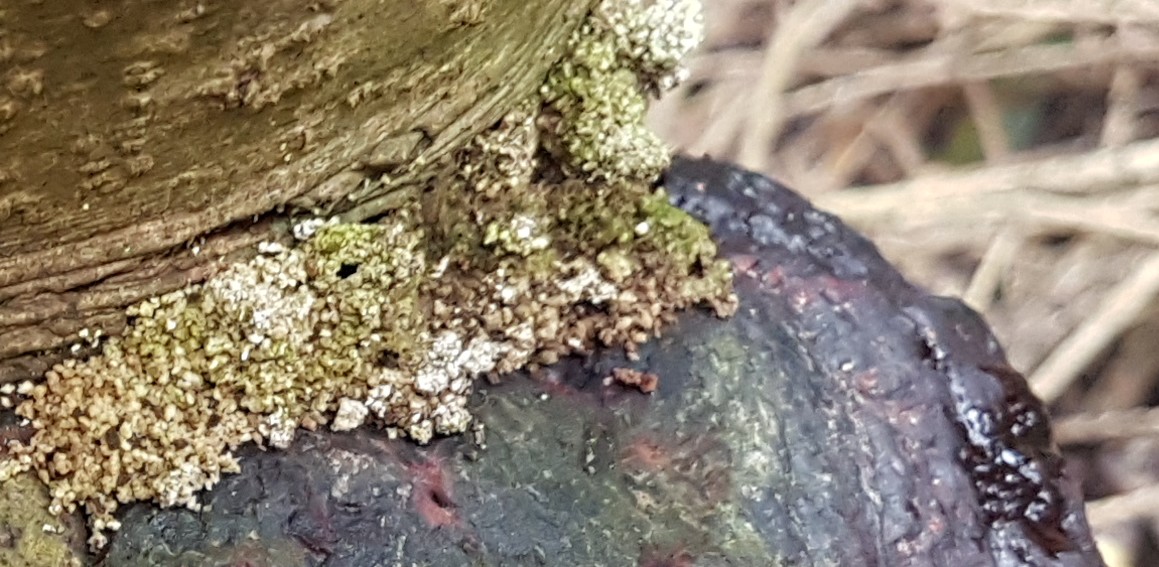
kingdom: Fungi
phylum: Basidiomycota
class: Agaricomycetes
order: Polyporales
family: Fomitopsidaceae
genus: Fomitopsis
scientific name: Fomitopsis pinicola
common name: randbæltet hovporesvamp
